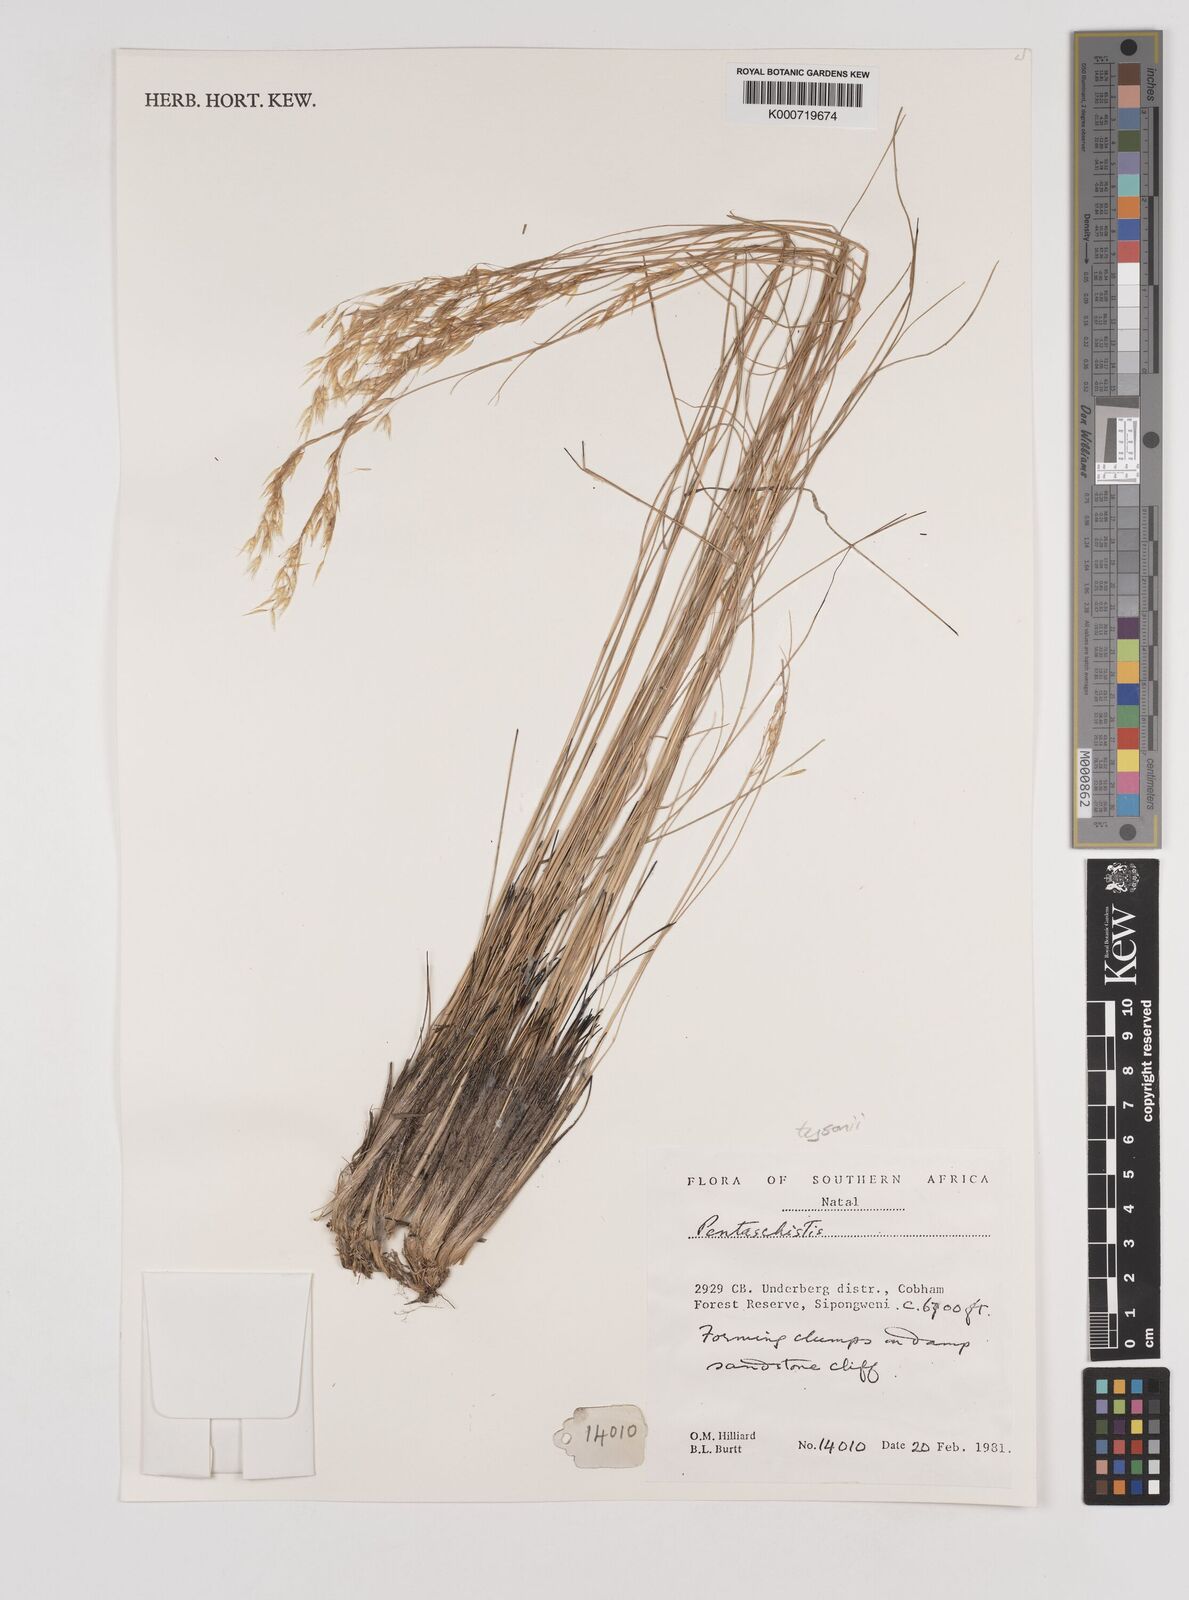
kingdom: Plantae
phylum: Tracheophyta
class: Liliopsida
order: Poales
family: Poaceae
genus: Pentameris
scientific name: Pentameris tysonii
